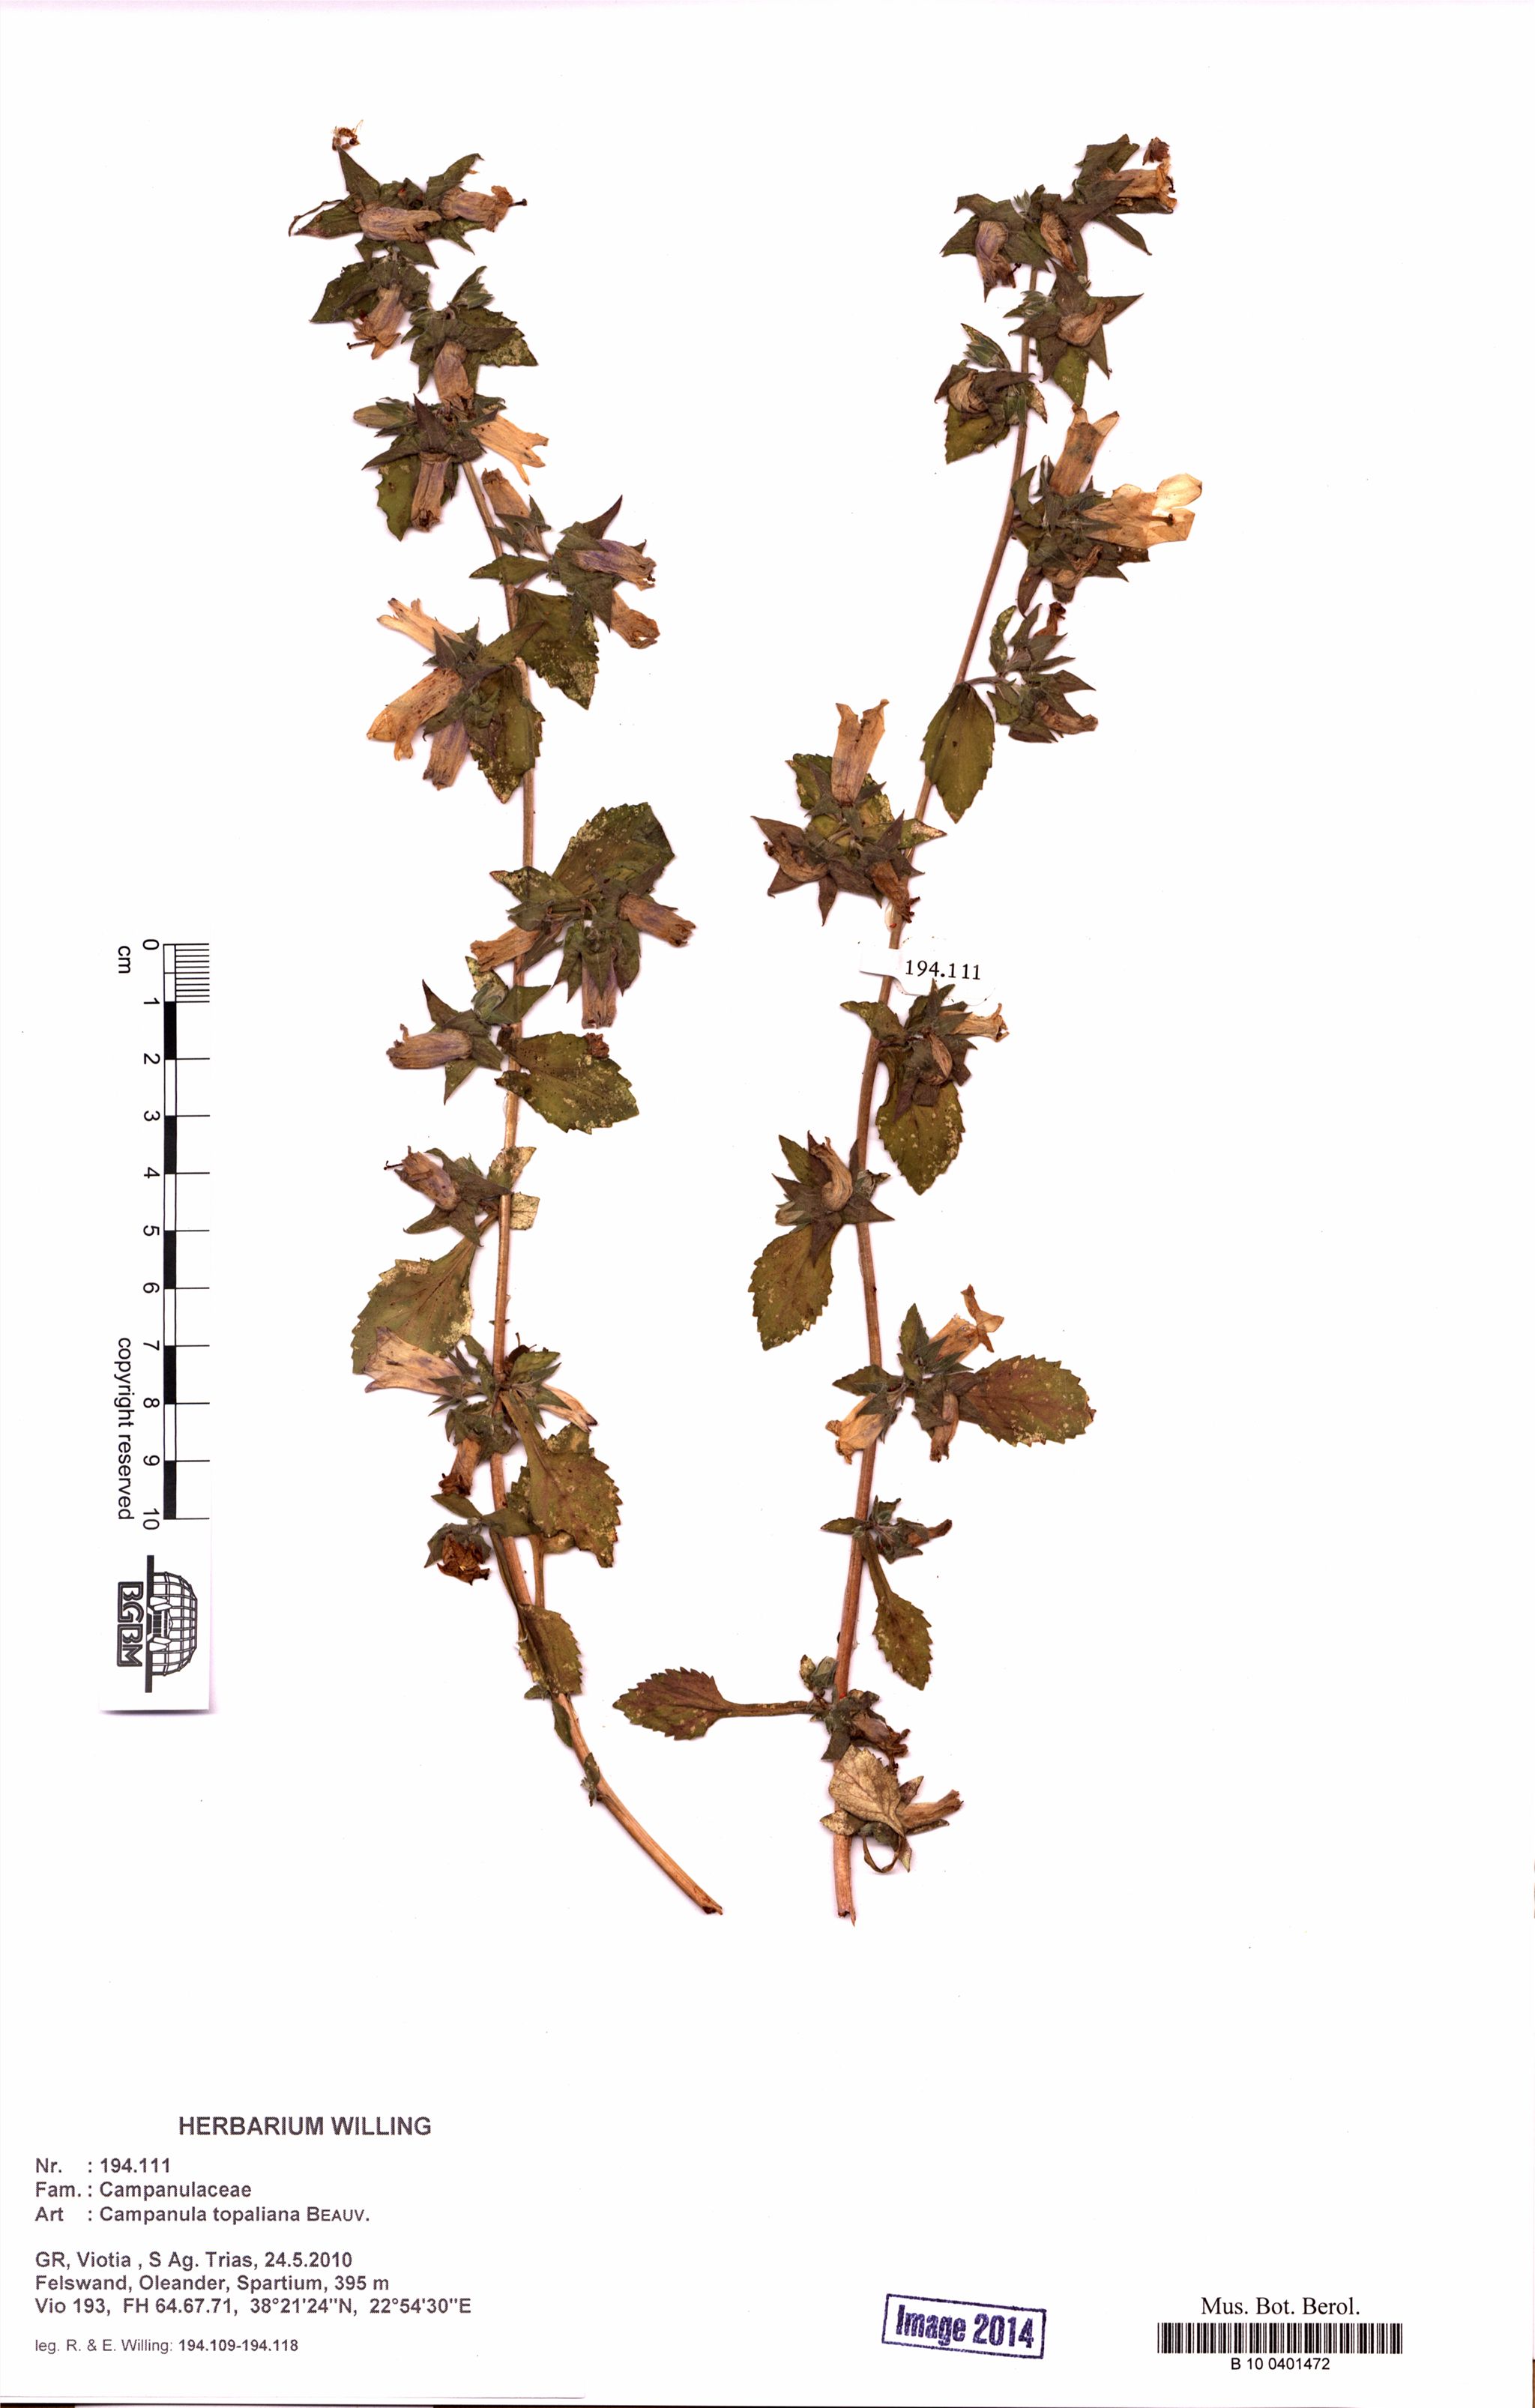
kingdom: Plantae
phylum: Tracheophyta
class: Magnoliopsida
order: Asterales
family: Campanulaceae
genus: Campanula
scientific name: Campanula topaliana
